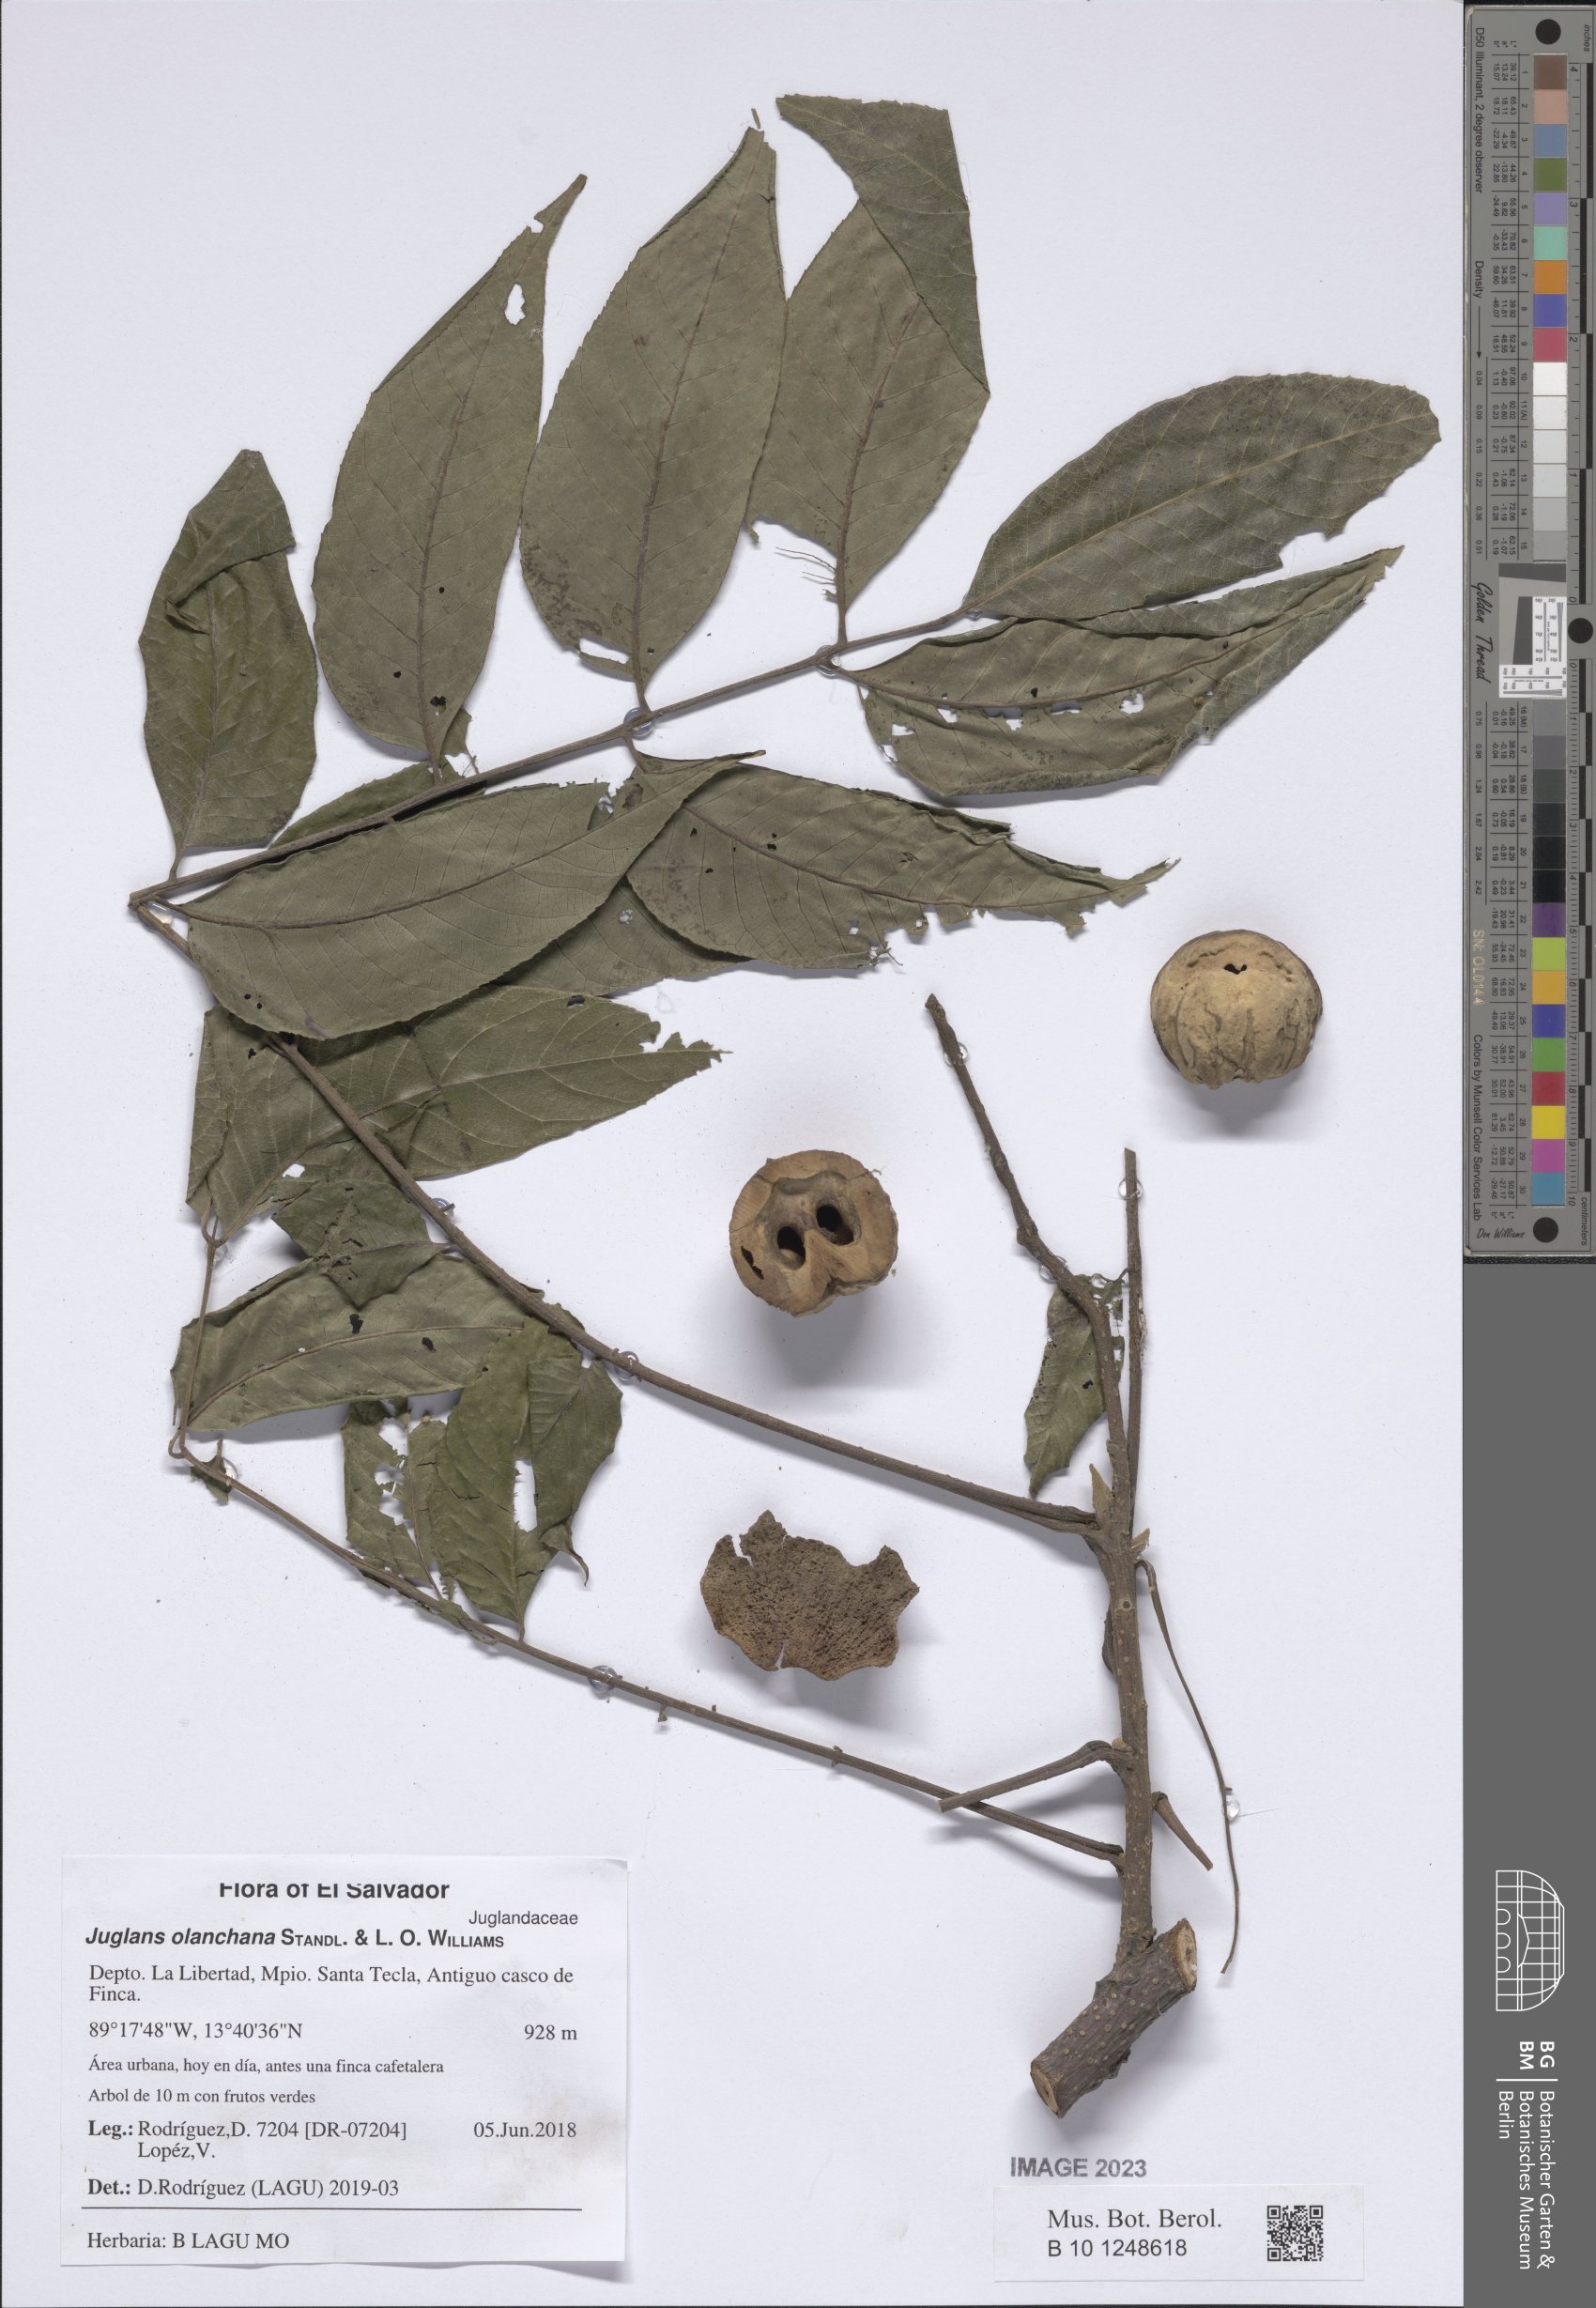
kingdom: Plantae
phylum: Tracheophyta
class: Magnoliopsida
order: Fagales
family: Juglandaceae
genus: Juglans
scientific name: Juglans olanchana
